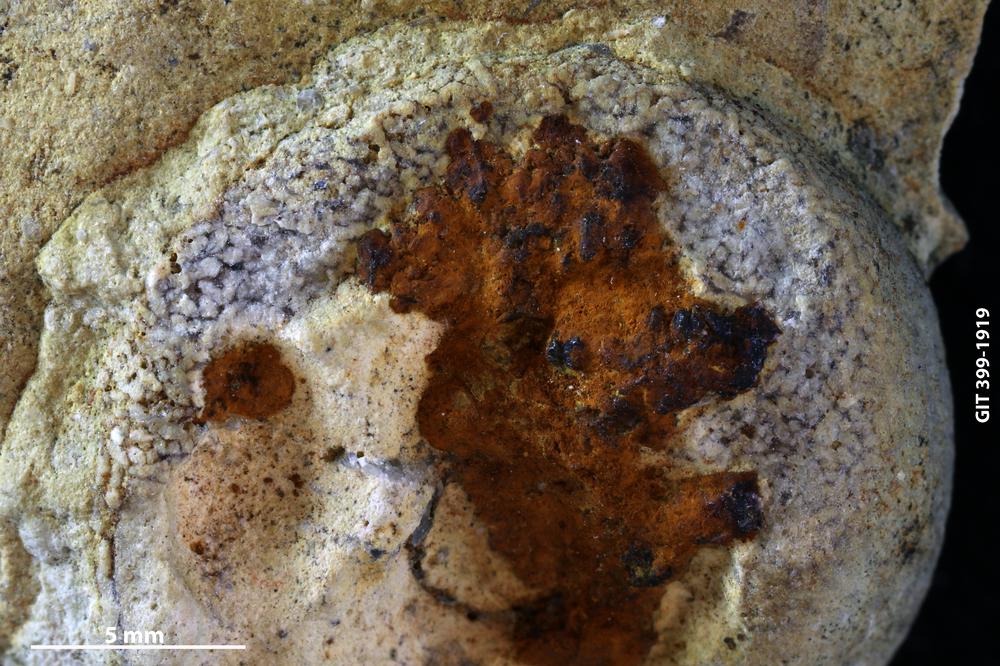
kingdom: Animalia
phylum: Mollusca
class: Gastropoda
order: Pleurotomariida
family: Eotomariidae
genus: Eotomaria
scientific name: Eotomaria
